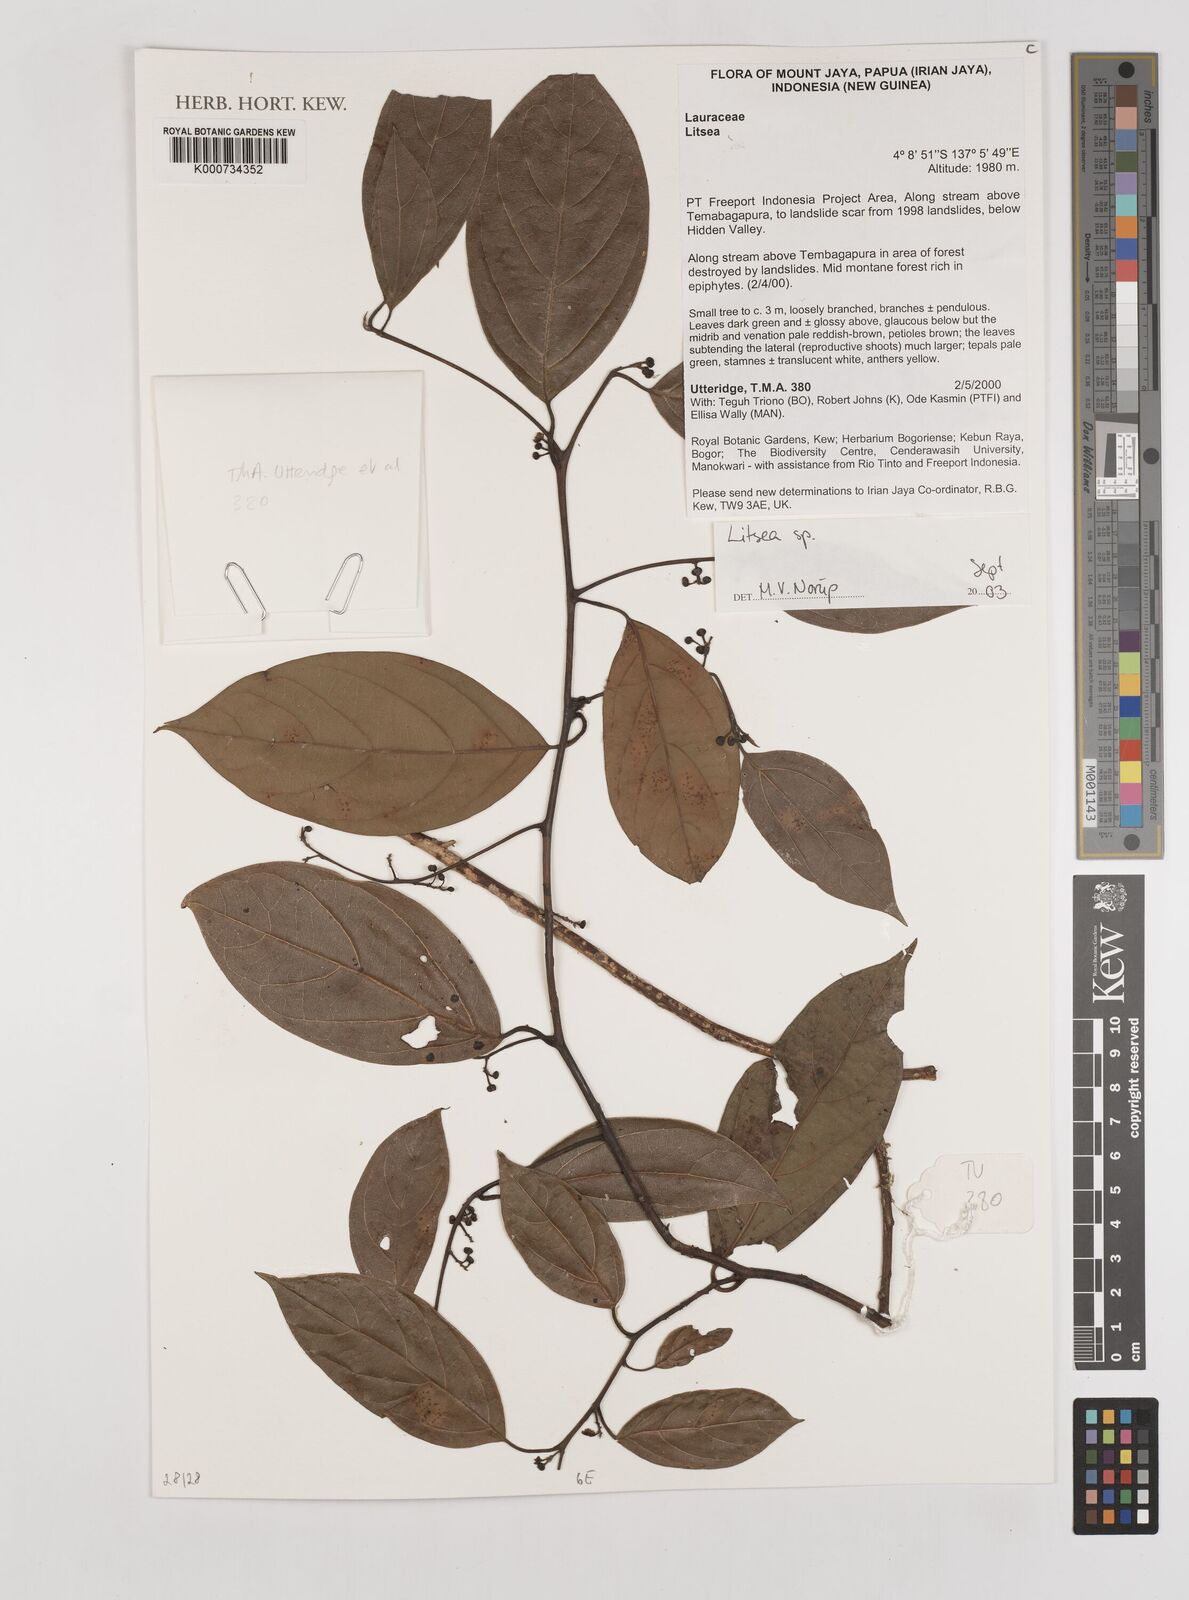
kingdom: Plantae
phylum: Tracheophyta
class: Magnoliopsida
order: Laurales
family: Lauraceae
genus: Litsea
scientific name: Litsea
